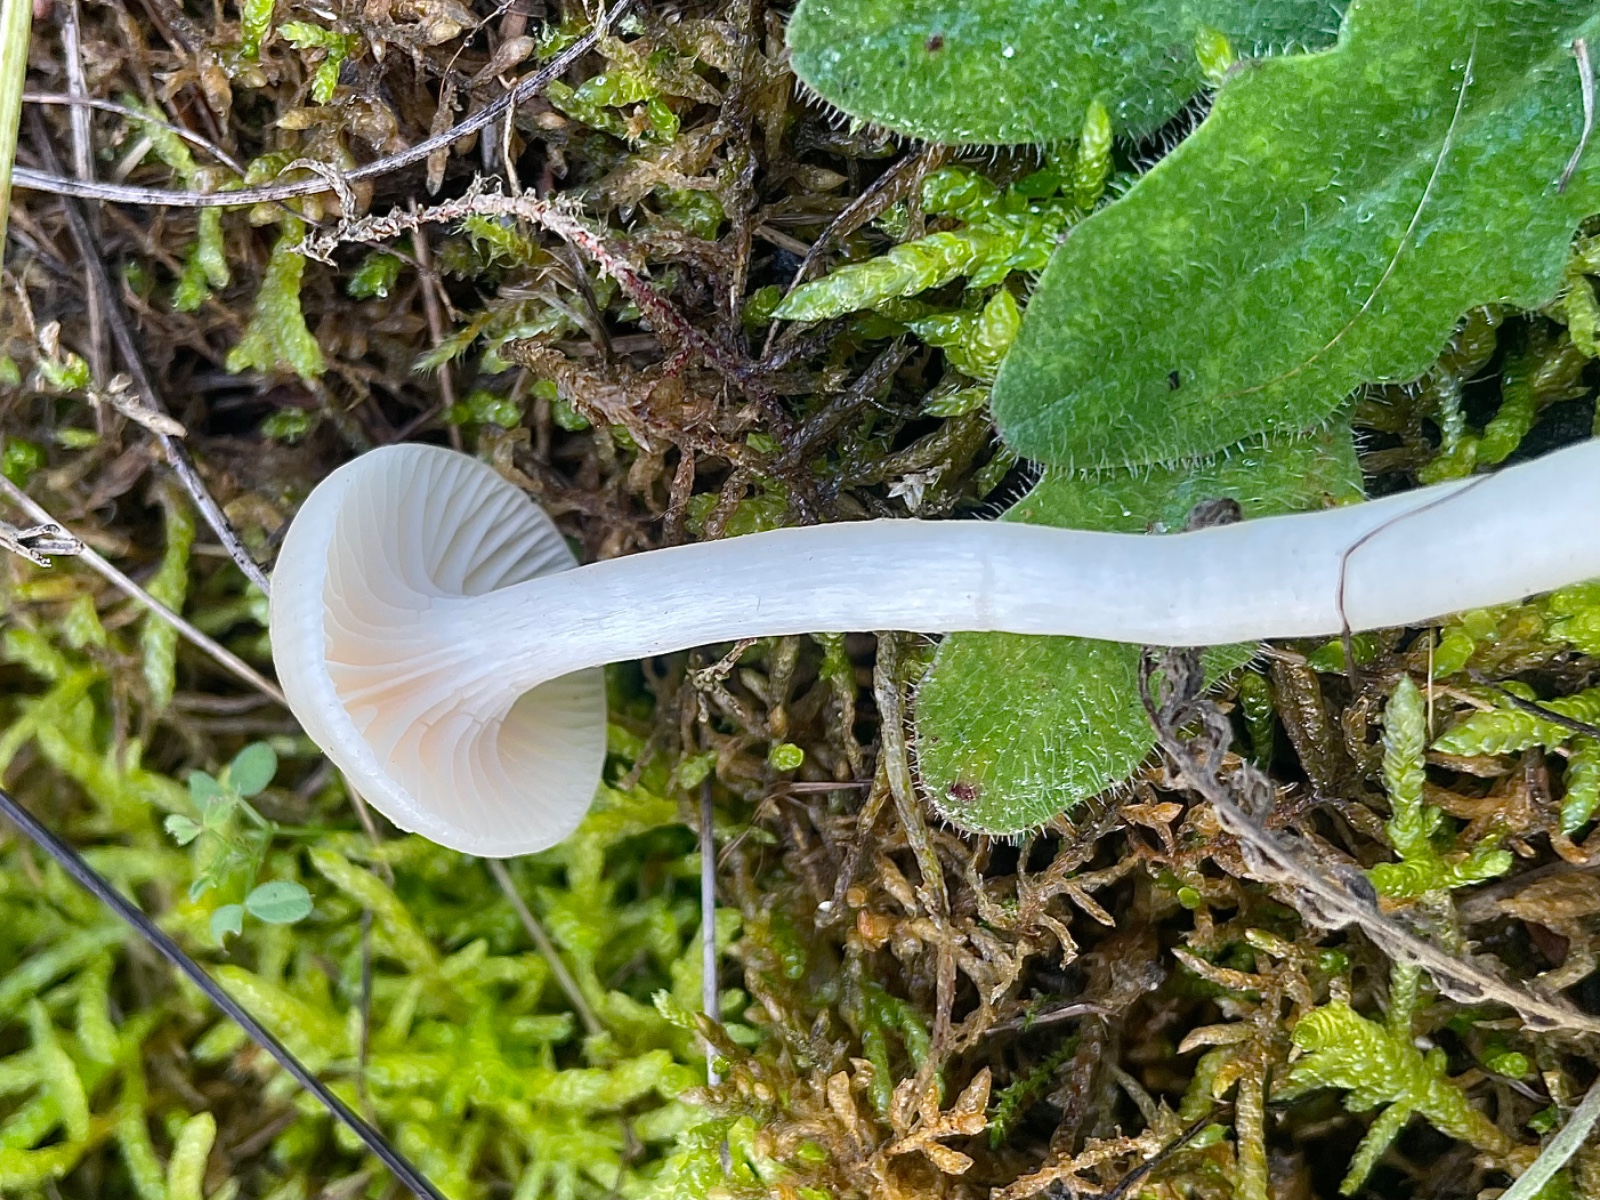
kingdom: Fungi
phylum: Basidiomycota
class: Agaricomycetes
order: Agaricales
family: Hygrophoraceae
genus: Cuphophyllus
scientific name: Cuphophyllus
